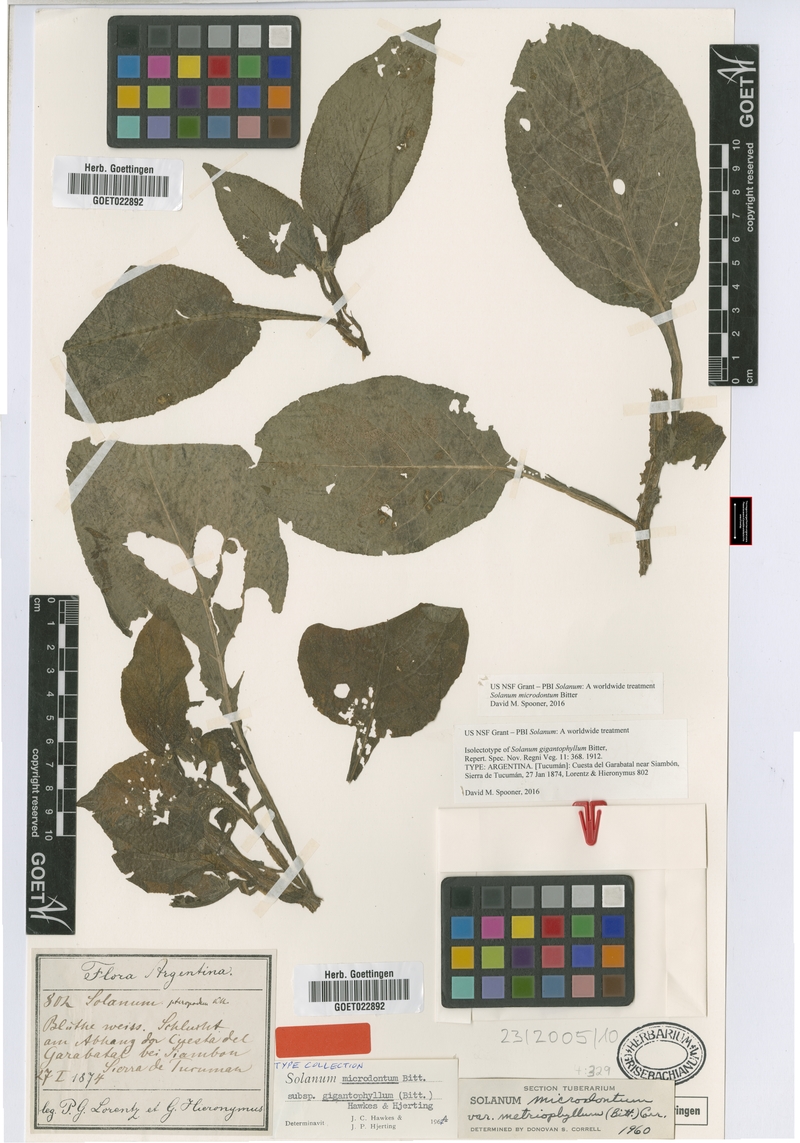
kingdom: Plantae
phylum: Tracheophyta
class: Magnoliopsida
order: Solanales
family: Solanaceae
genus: Solanum
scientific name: Solanum microdontum
